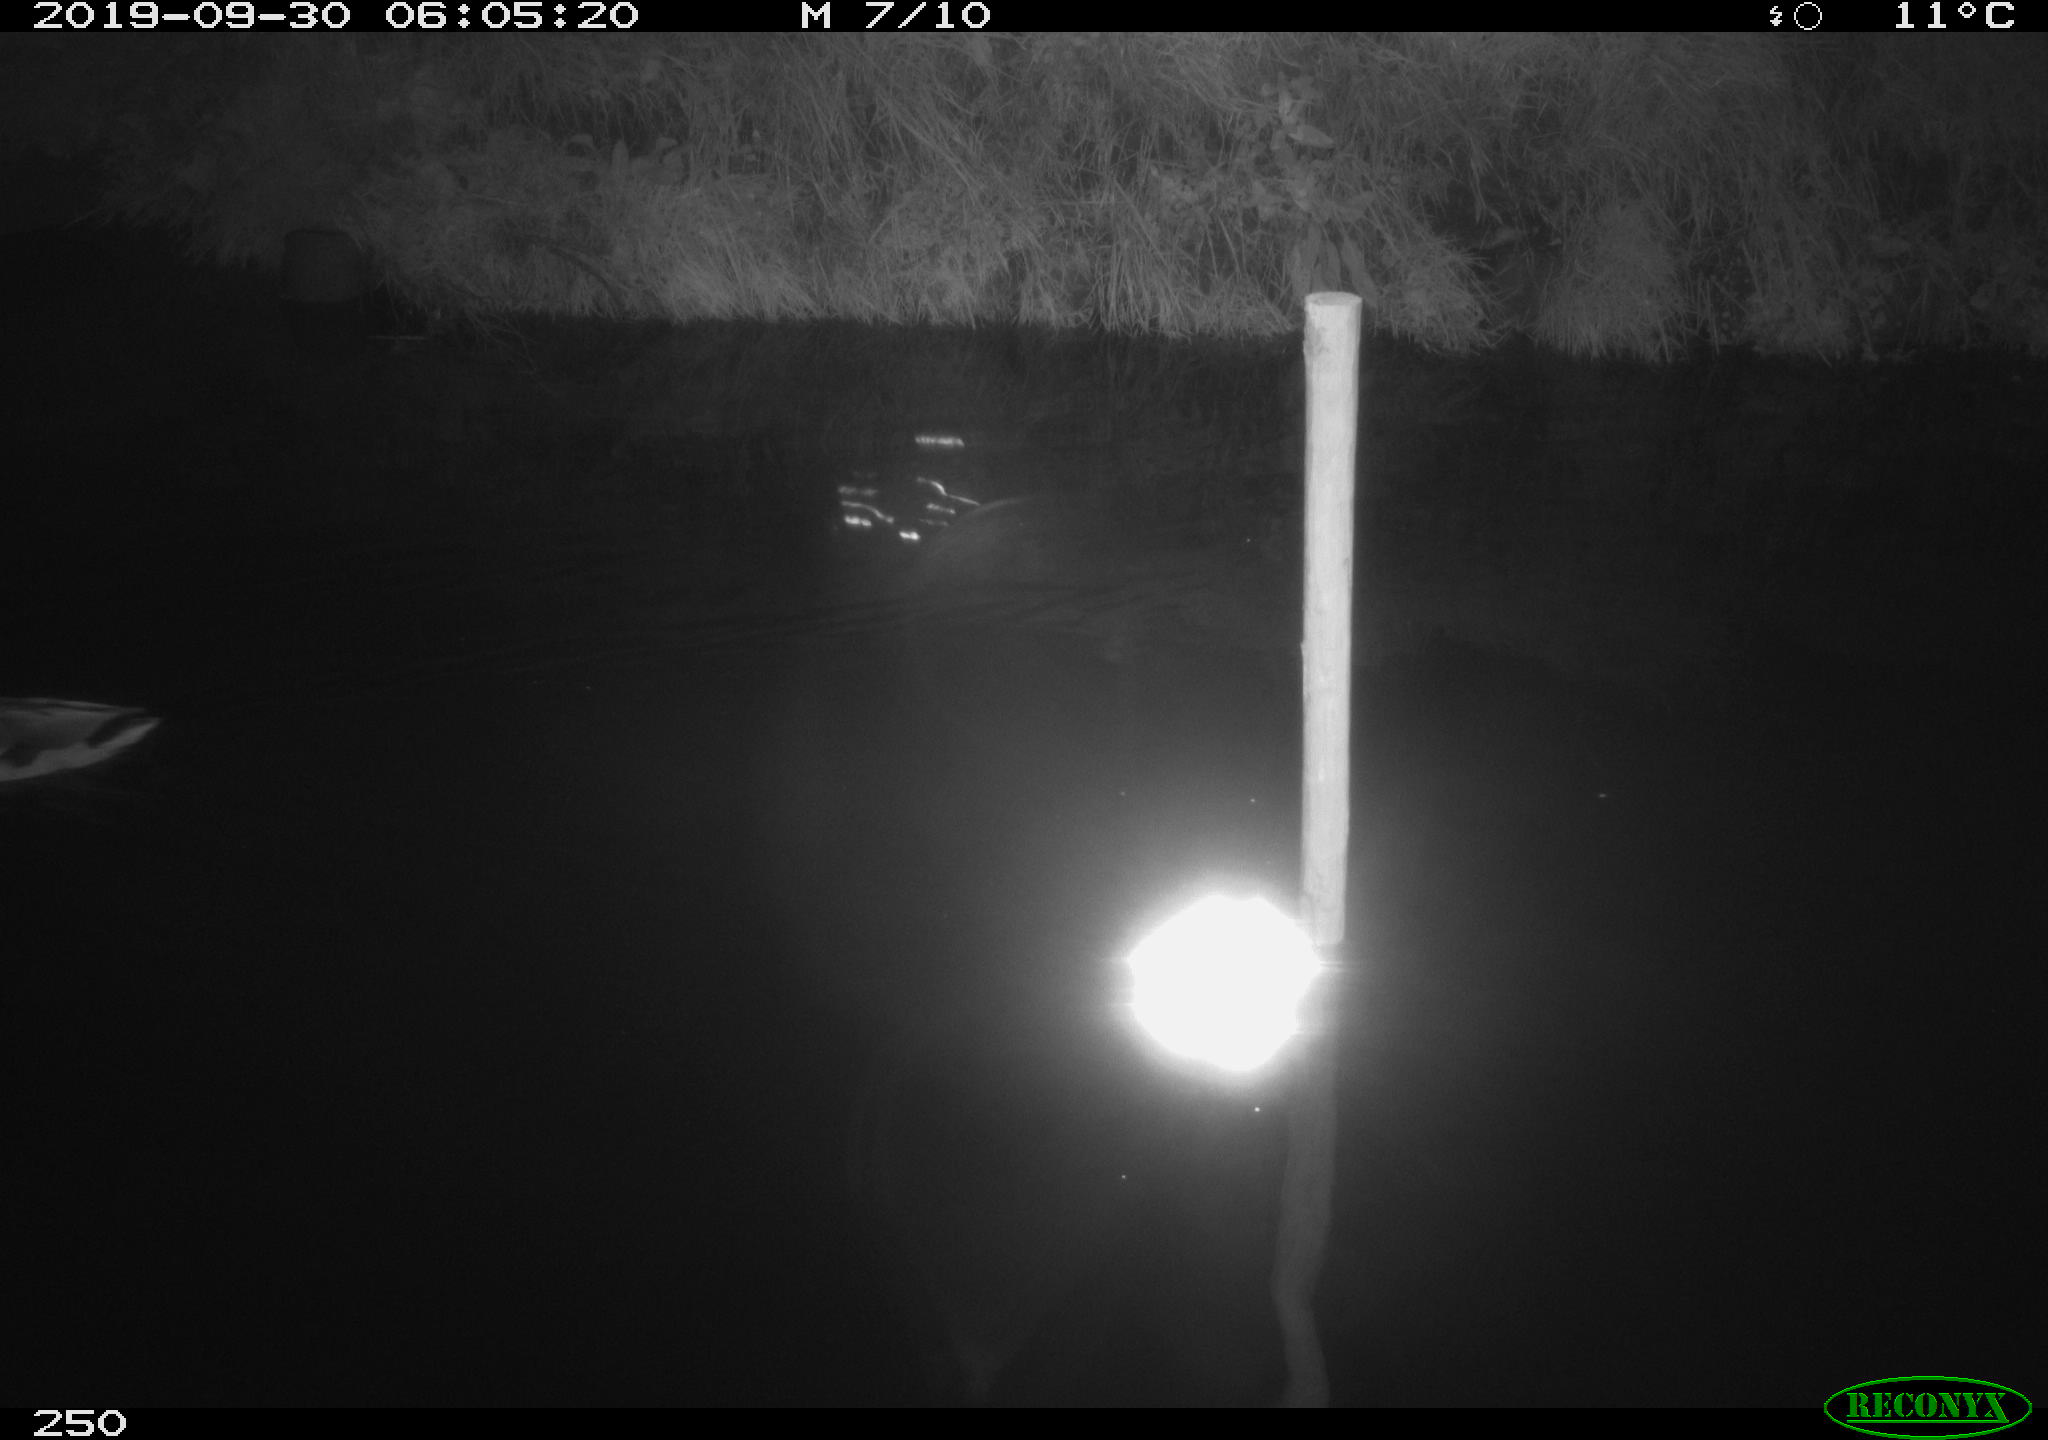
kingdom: Animalia
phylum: Chordata
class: Aves
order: Anseriformes
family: Anatidae
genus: Anas
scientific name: Anas platyrhynchos
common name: Mallard
